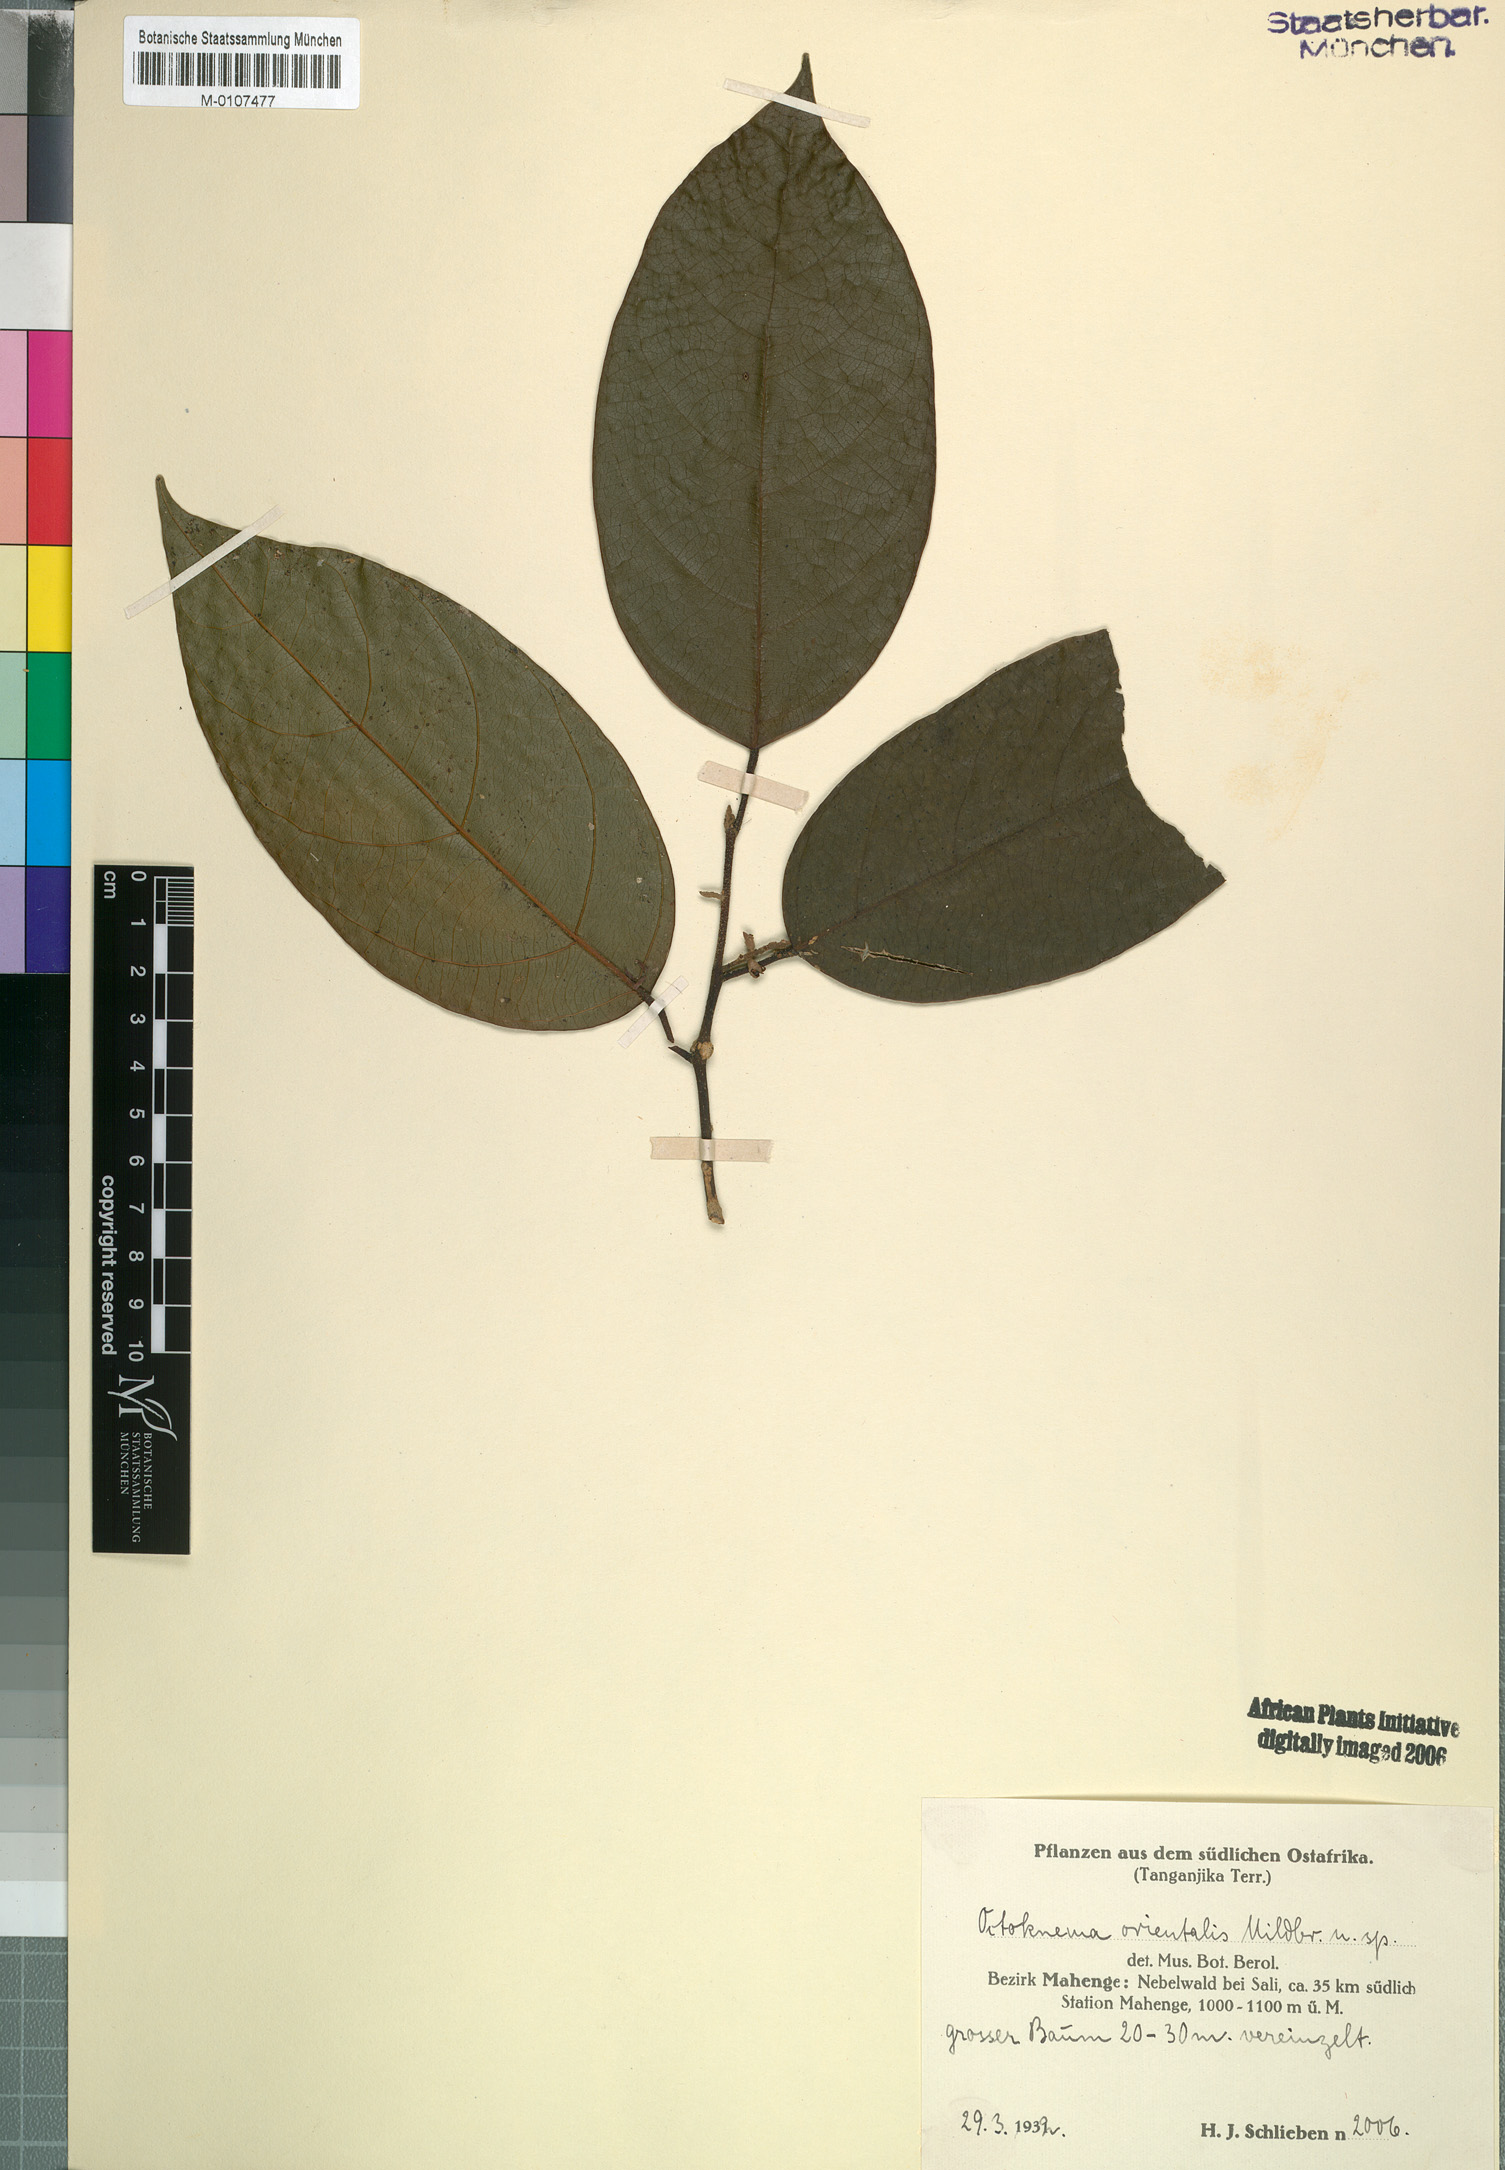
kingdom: Plantae
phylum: Tracheophyta
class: Magnoliopsida
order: Santalales
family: Octoknemaceae
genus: Octoknema
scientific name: Octoknema orientalis
